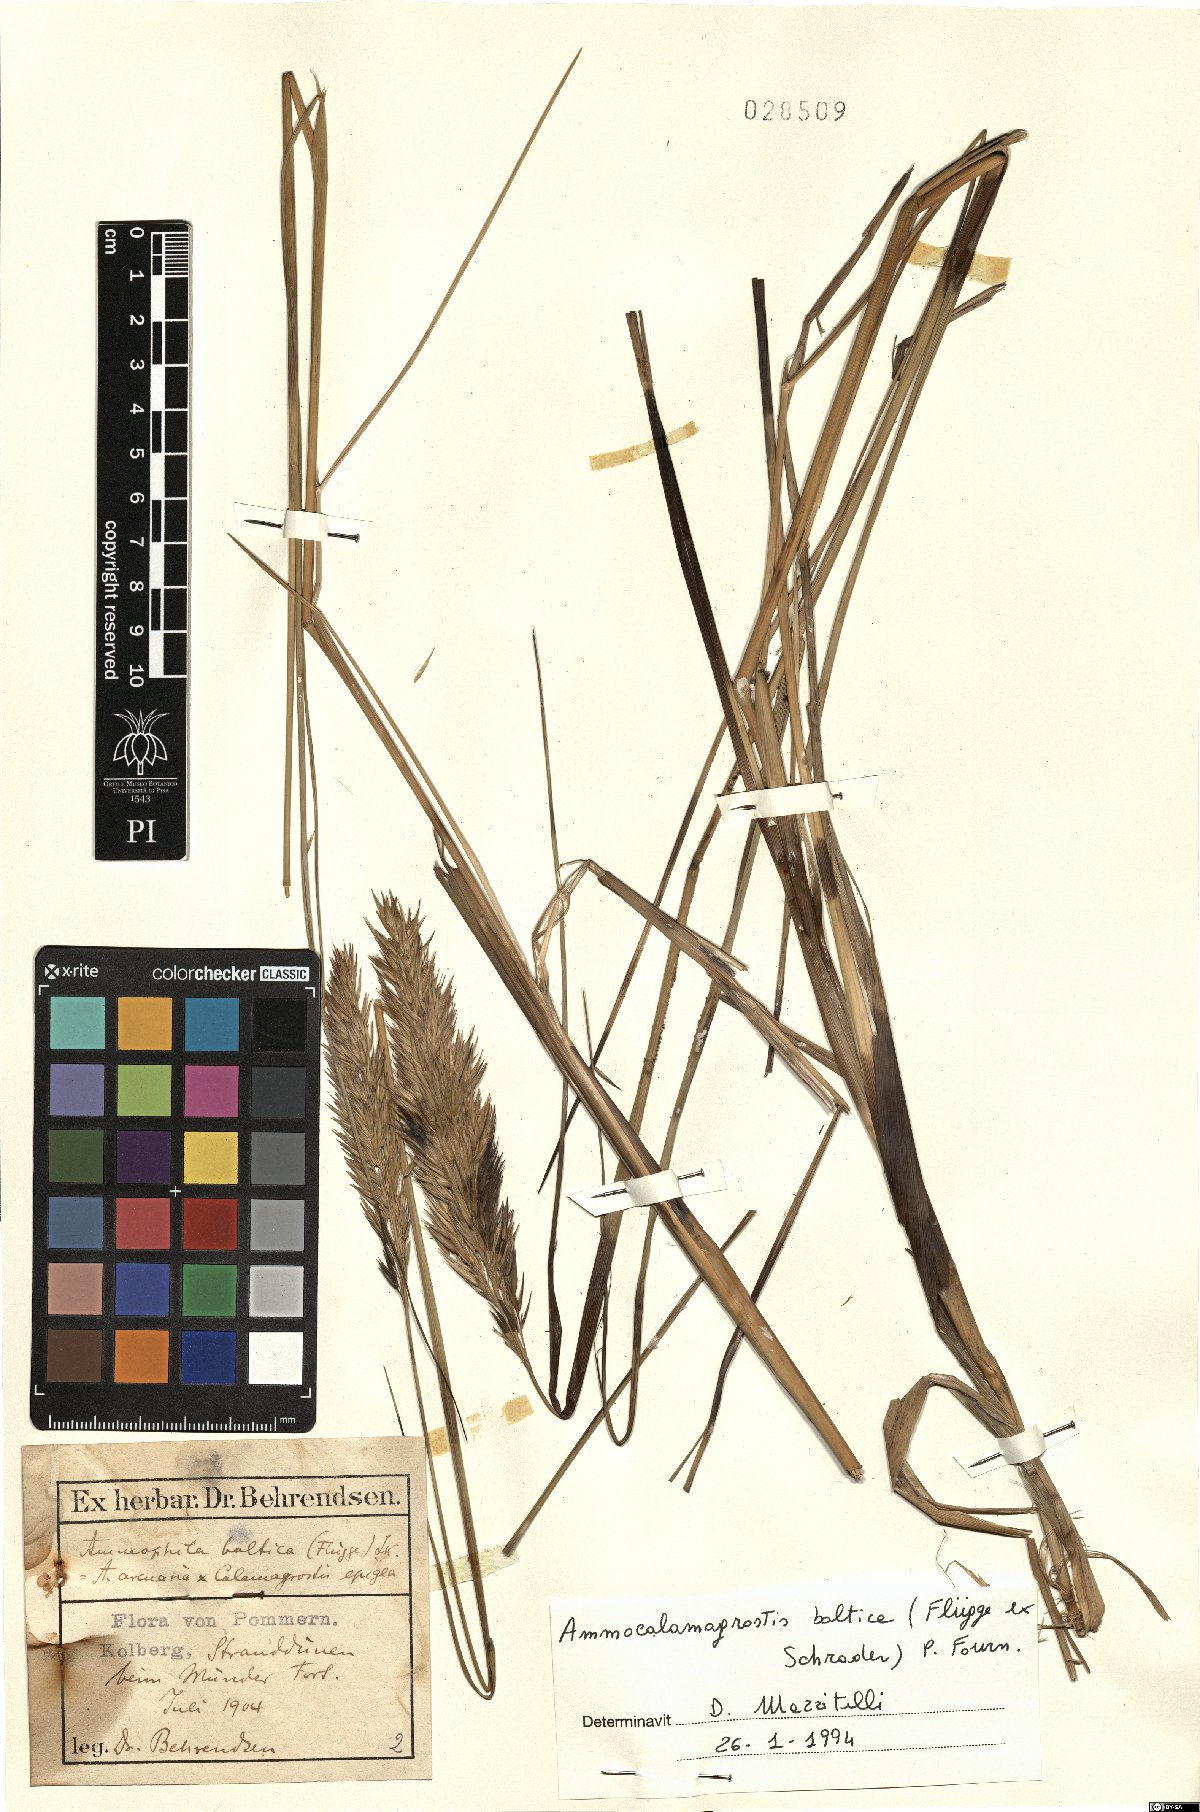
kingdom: Plantae
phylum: Tracheophyta
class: Liliopsida
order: Poales
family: Poaceae
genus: Calamagrostis
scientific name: Calamagrostis baltica
